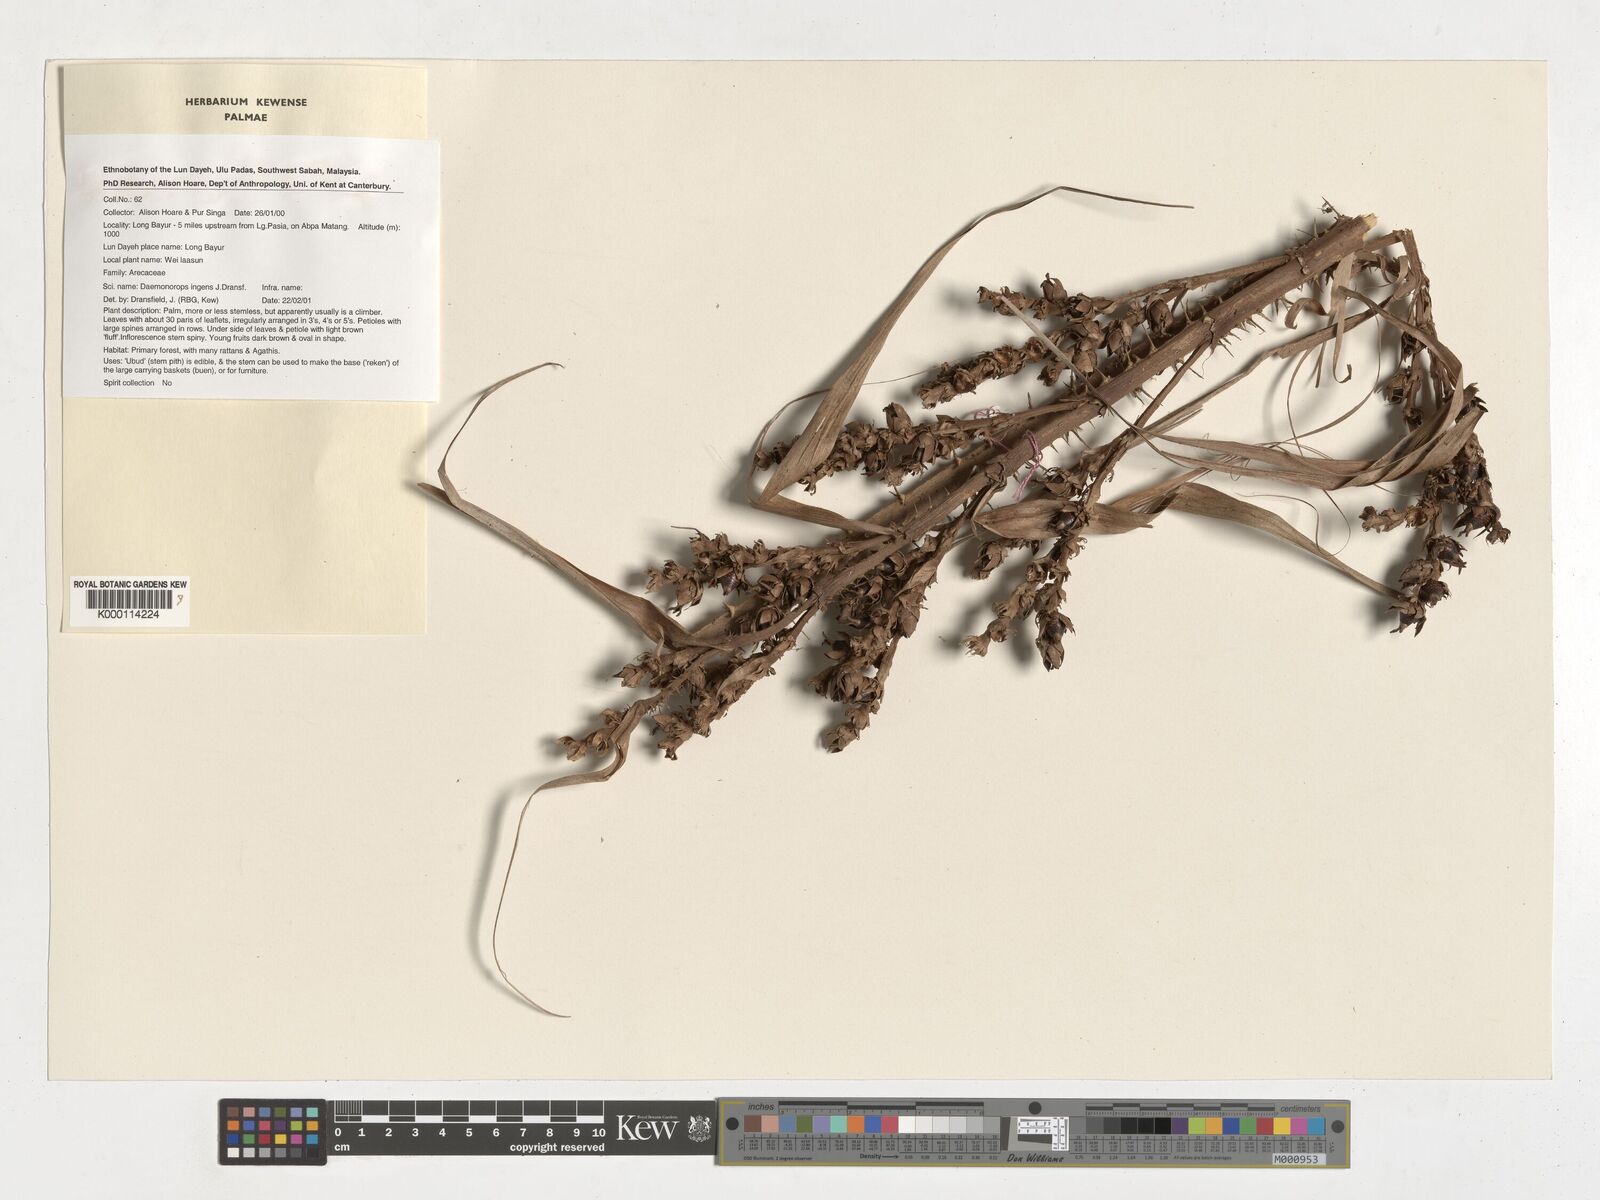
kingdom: Plantae
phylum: Tracheophyta
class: Liliopsida
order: Arecales
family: Arecaceae
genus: Calamus
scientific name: Calamus ingens
